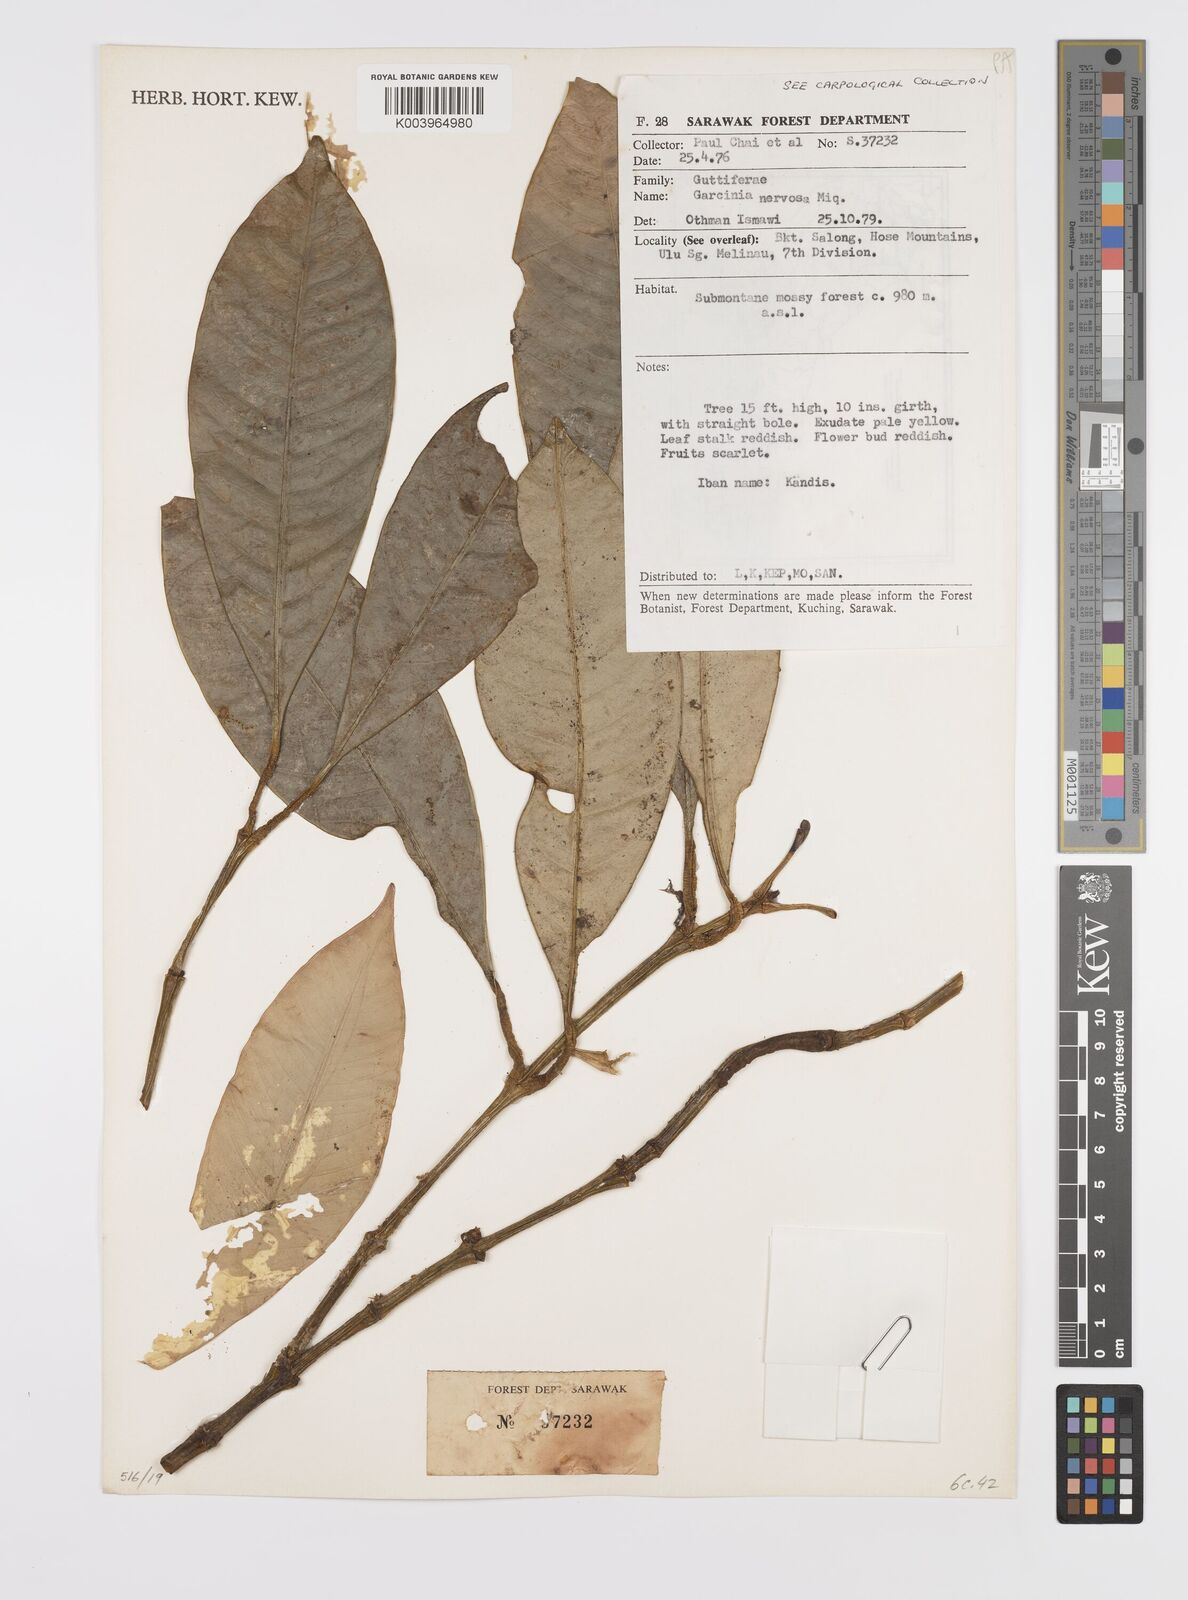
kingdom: Plantae
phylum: Tracheophyta
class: Magnoliopsida
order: Malpighiales
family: Clusiaceae
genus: Garcinia
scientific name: Garcinia nervosa
